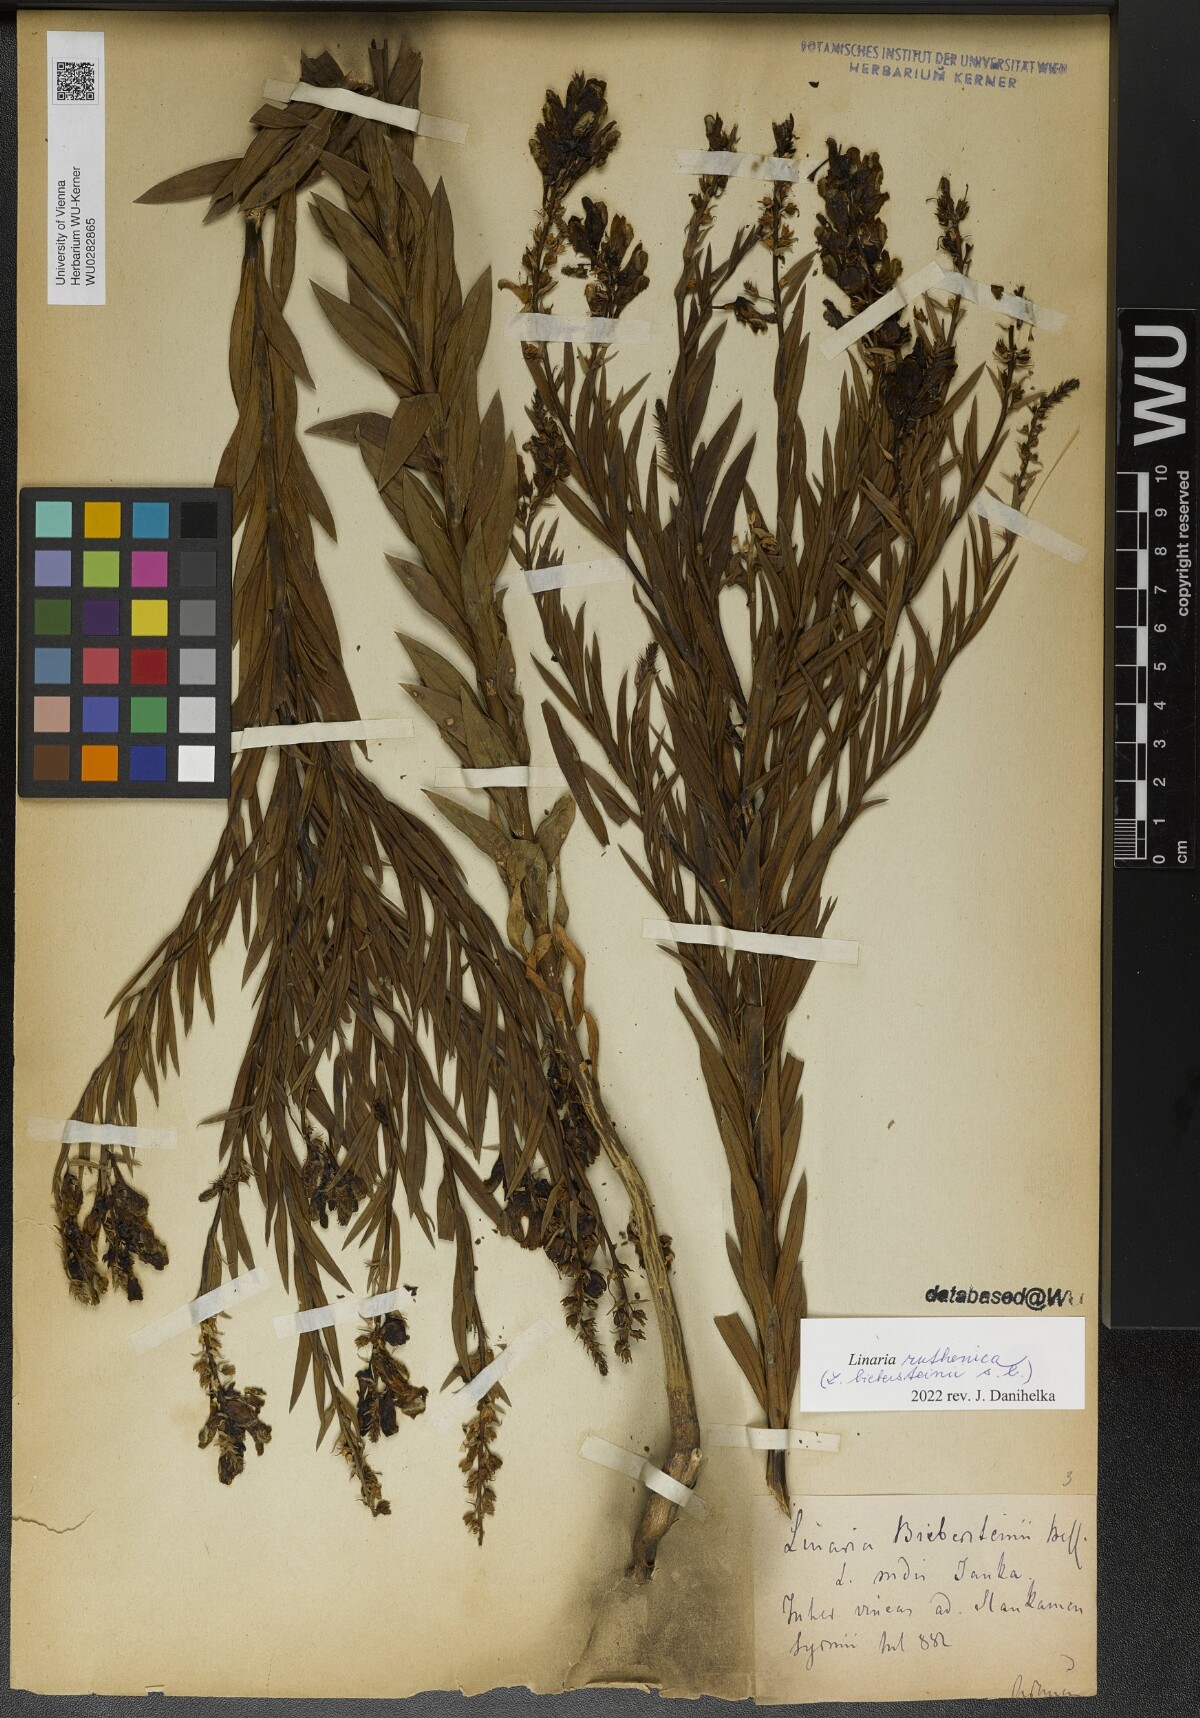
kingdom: Plantae
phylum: Tracheophyta
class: Magnoliopsida
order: Lamiales
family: Plantaginaceae
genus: Linaria
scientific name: Linaria biebersteinii
